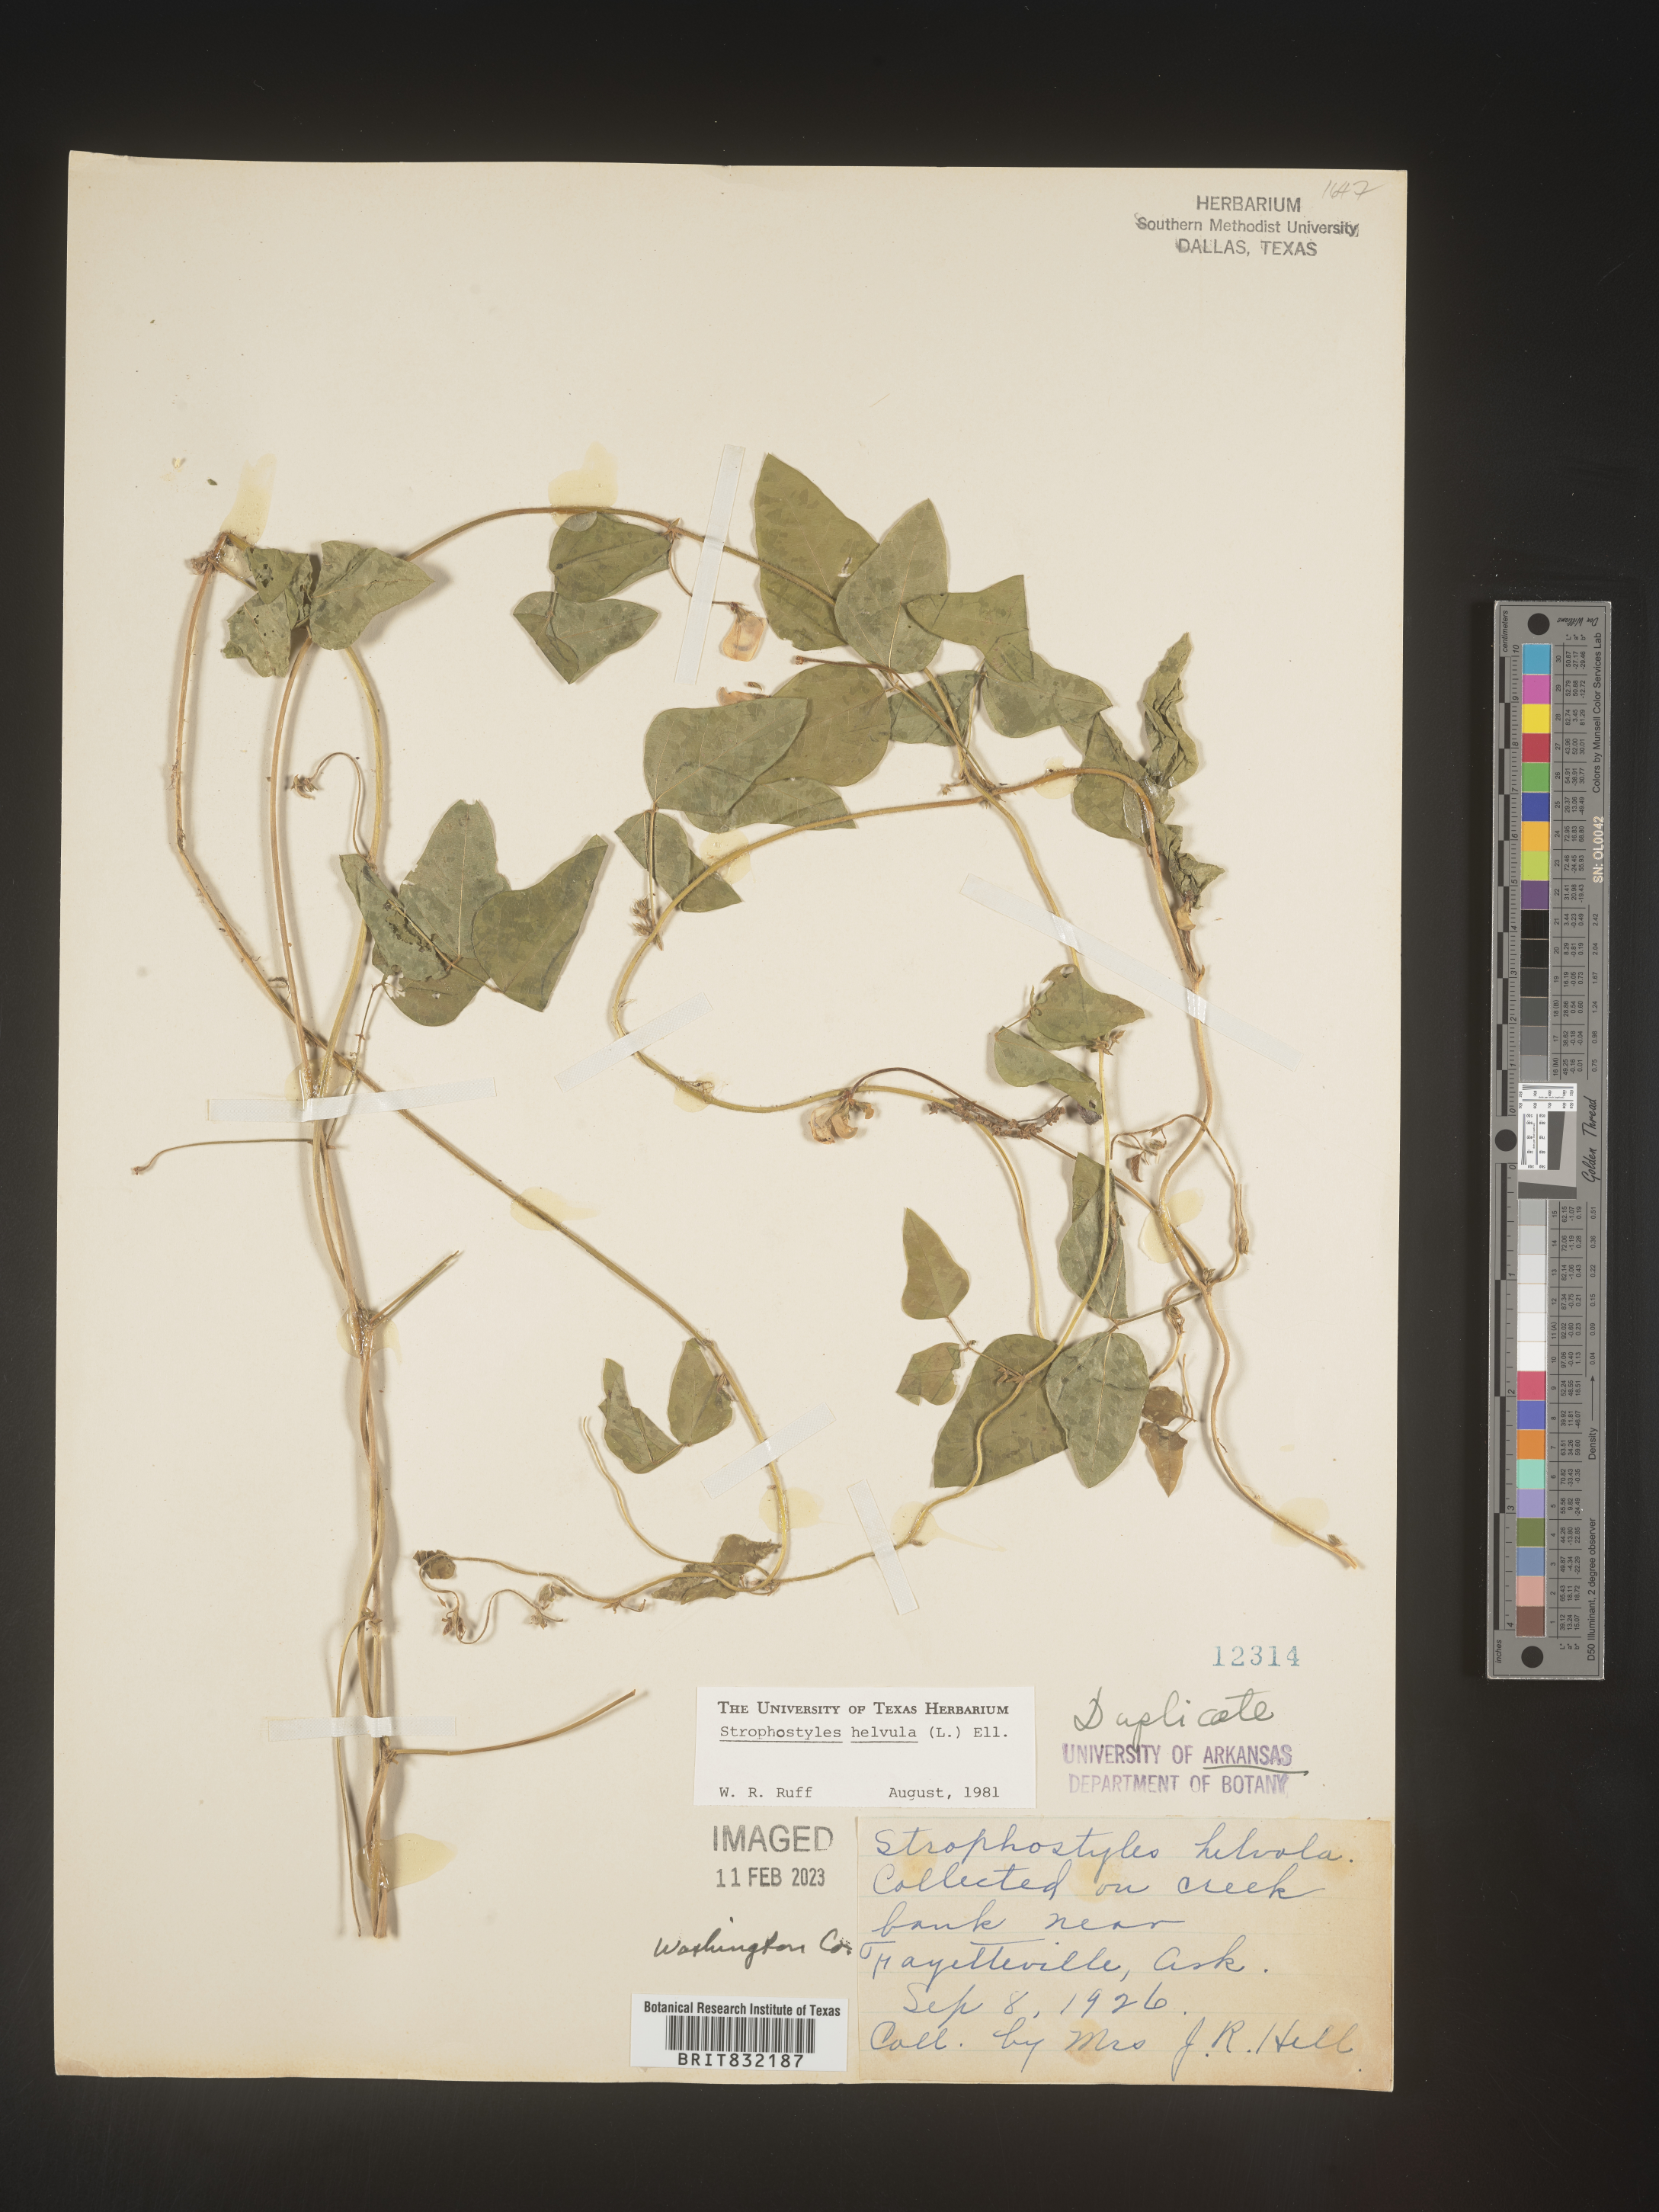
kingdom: Plantae
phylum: Tracheophyta
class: Magnoliopsida
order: Fabales
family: Fabaceae
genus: Strophostyles
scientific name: Strophostyles helvola
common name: Trailing wild bean
